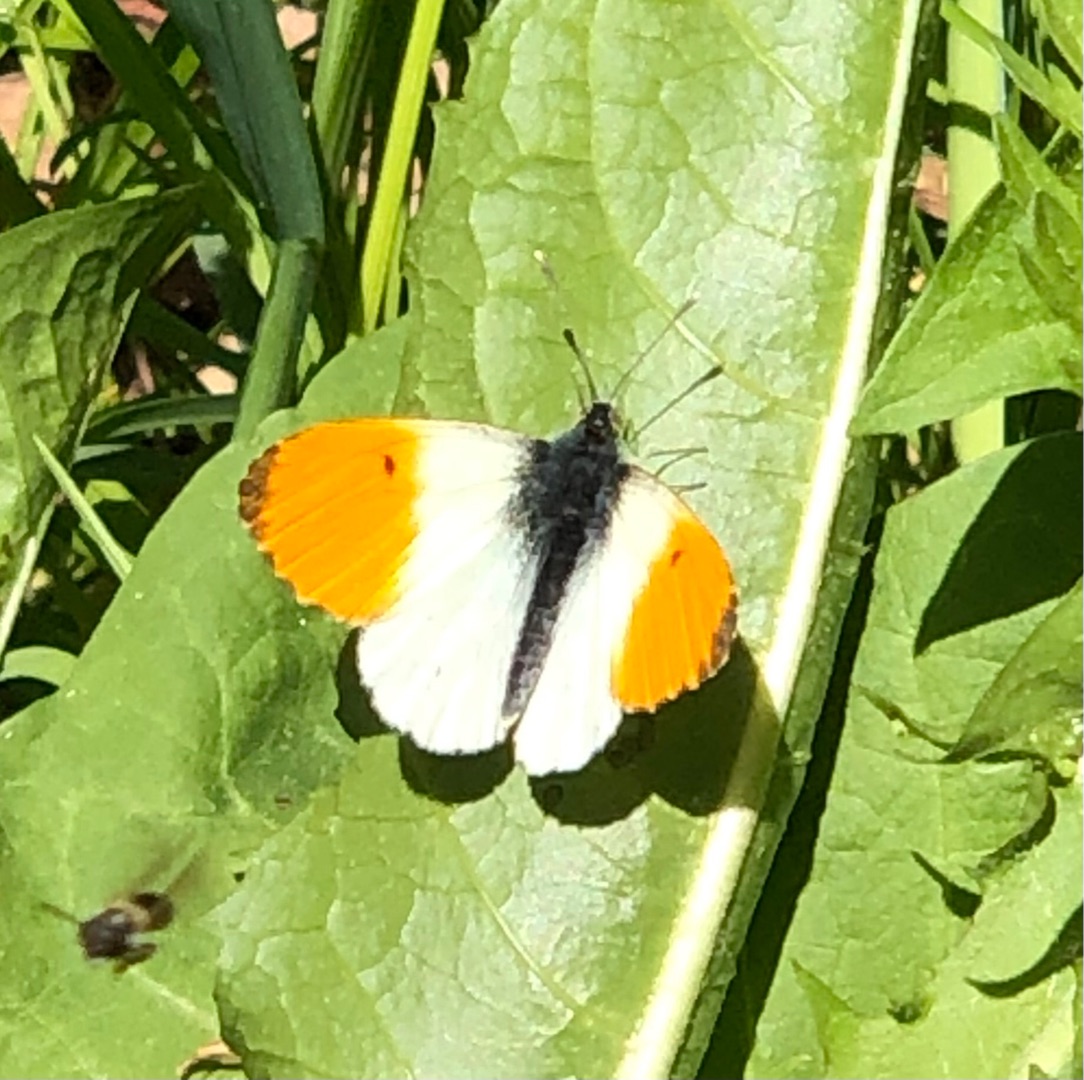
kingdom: Animalia
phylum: Arthropoda
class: Insecta
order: Lepidoptera
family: Pieridae
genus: Anthocharis
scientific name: Anthocharis cardamines
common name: Aurora
